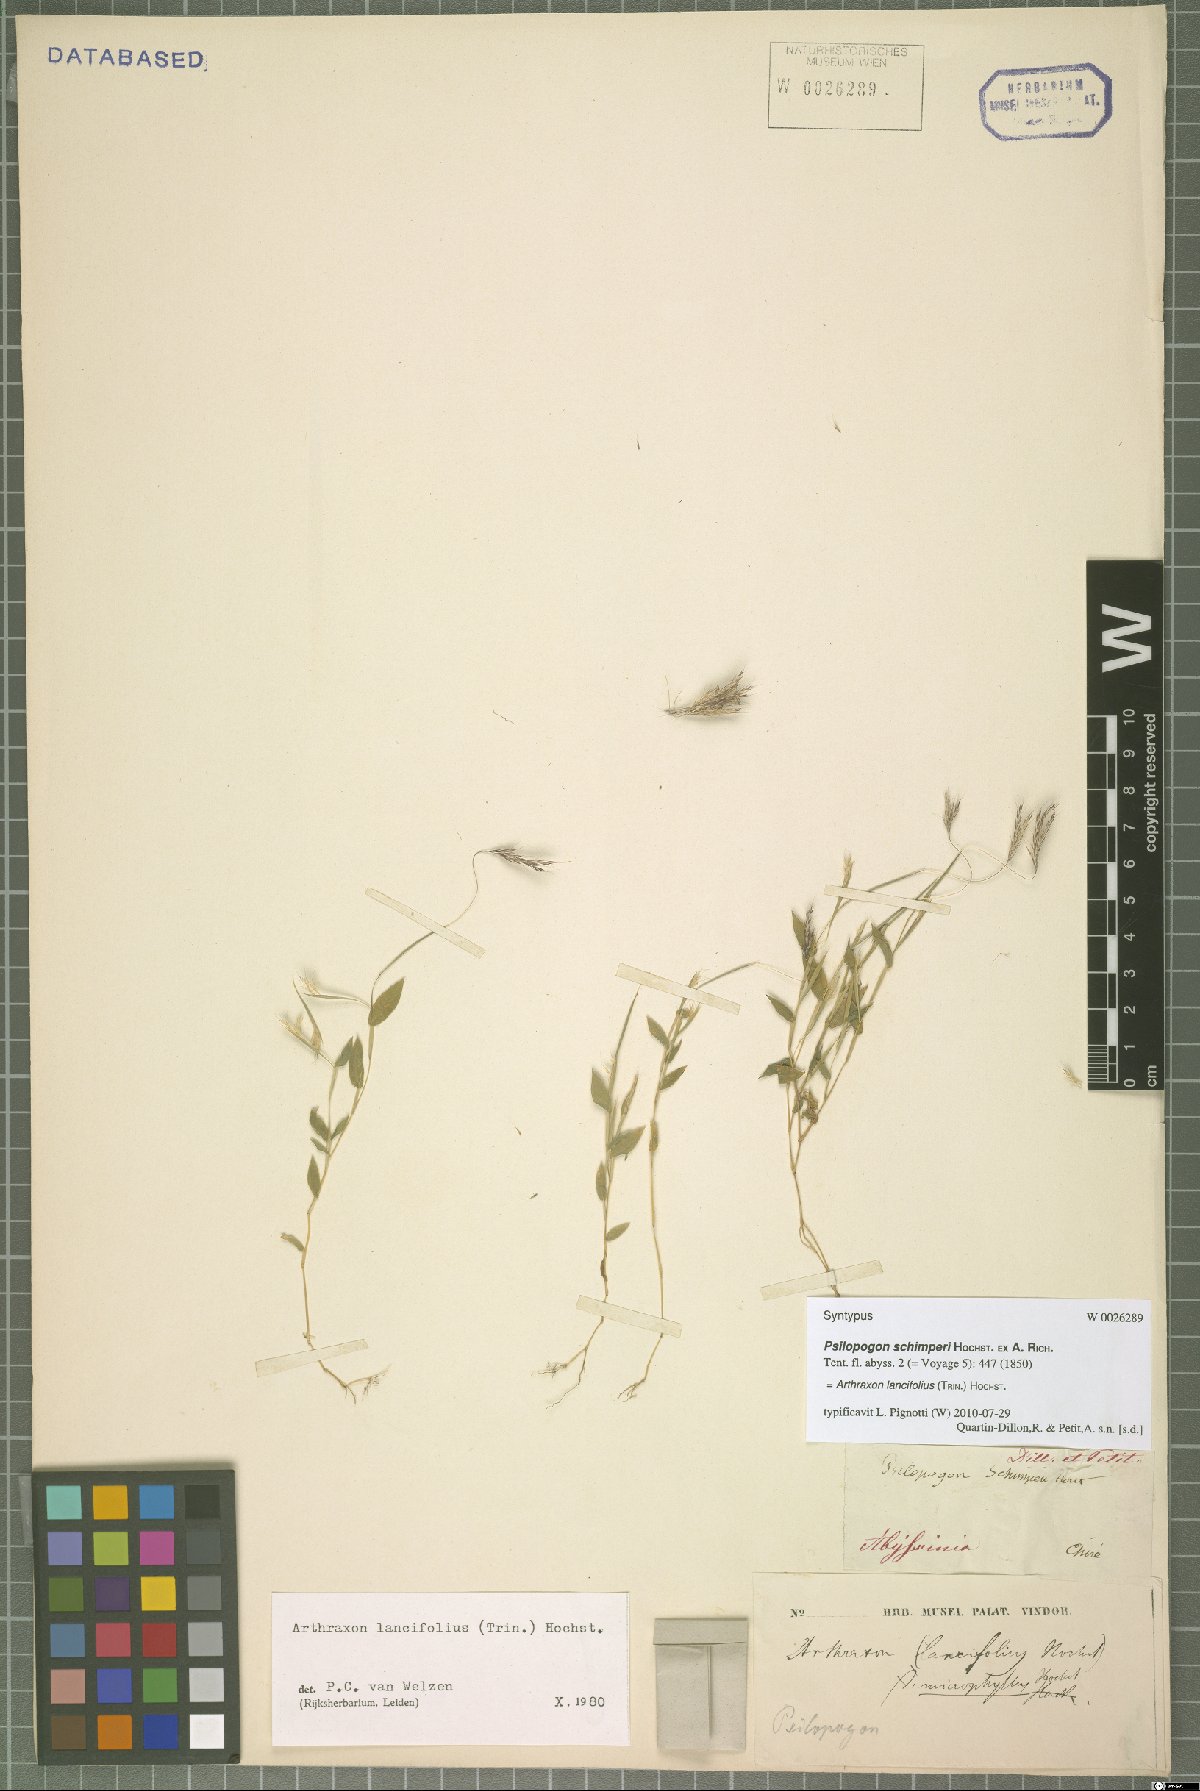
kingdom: Plantae
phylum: Tracheophyta
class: Liliopsida
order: Poales
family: Poaceae
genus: Arthraxon
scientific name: Arthraxon lancifolius
